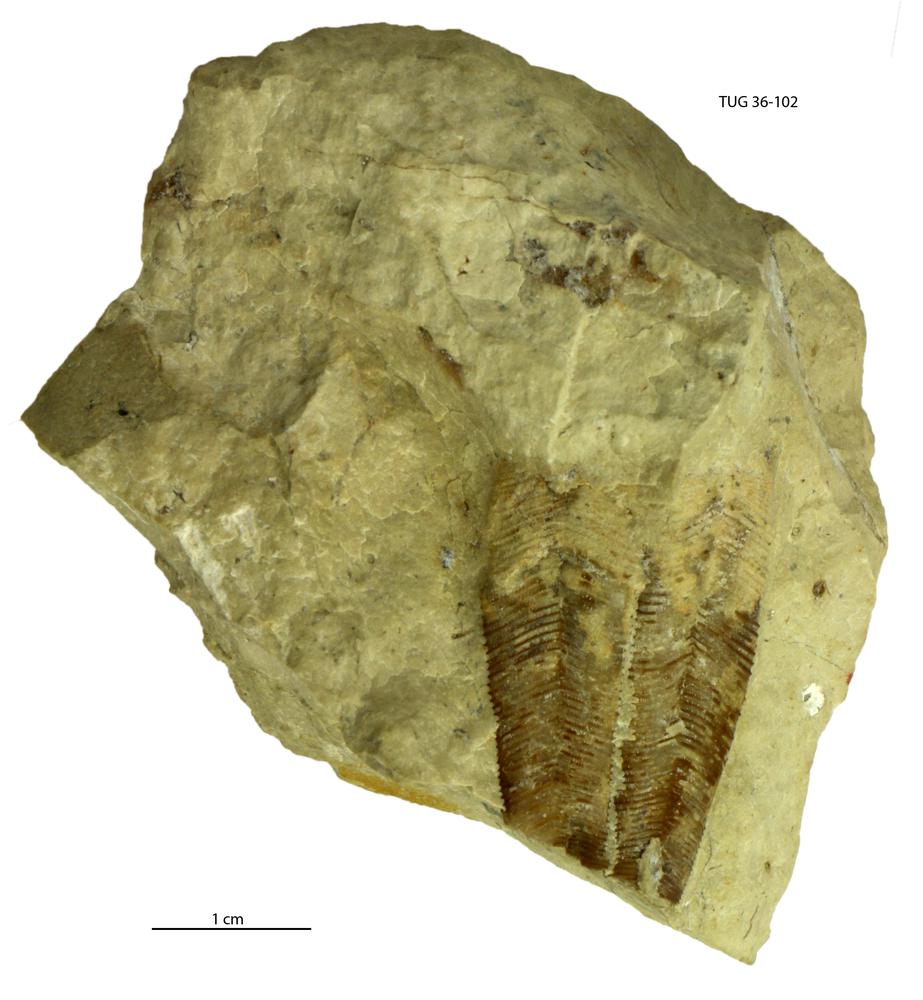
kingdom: Animalia
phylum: Cnidaria
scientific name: Cnidaria
